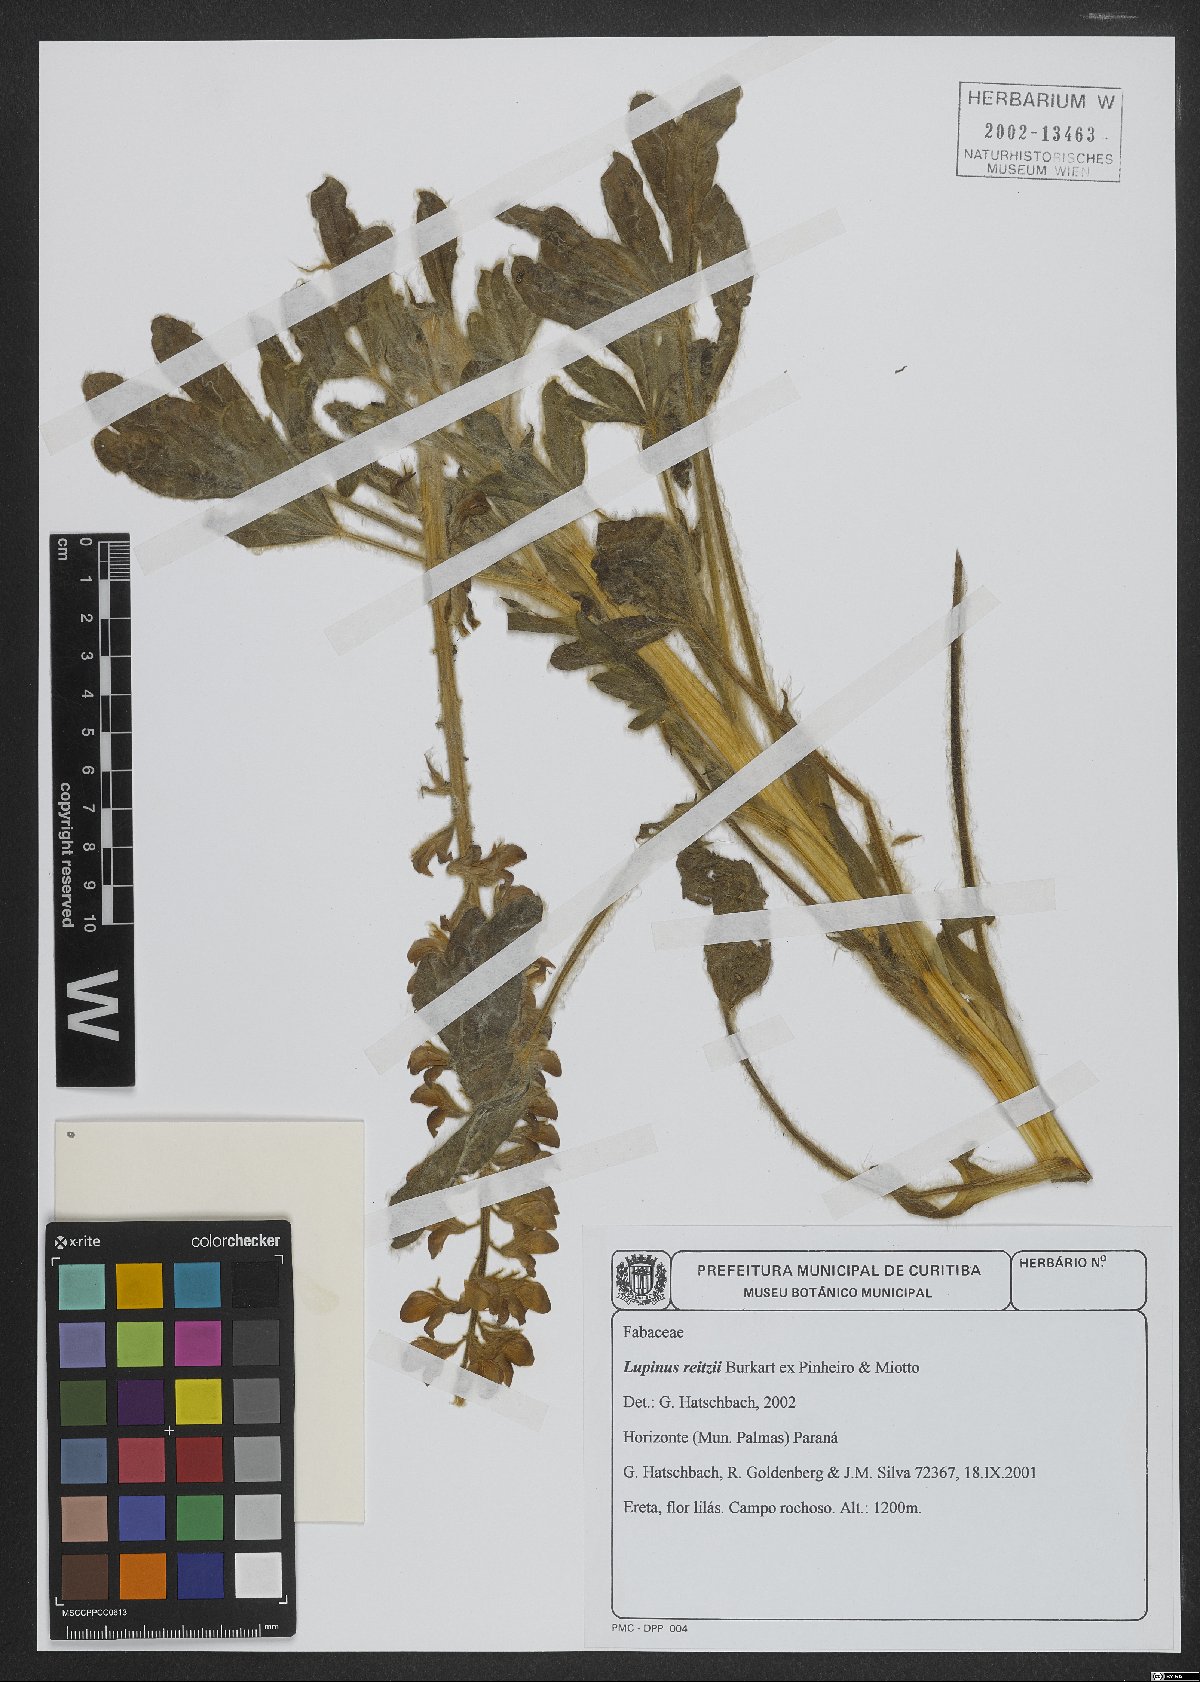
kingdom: Plantae
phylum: Tracheophyta
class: Magnoliopsida
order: Fabales
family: Fabaceae
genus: Lupinus
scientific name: Lupinus reitzii
